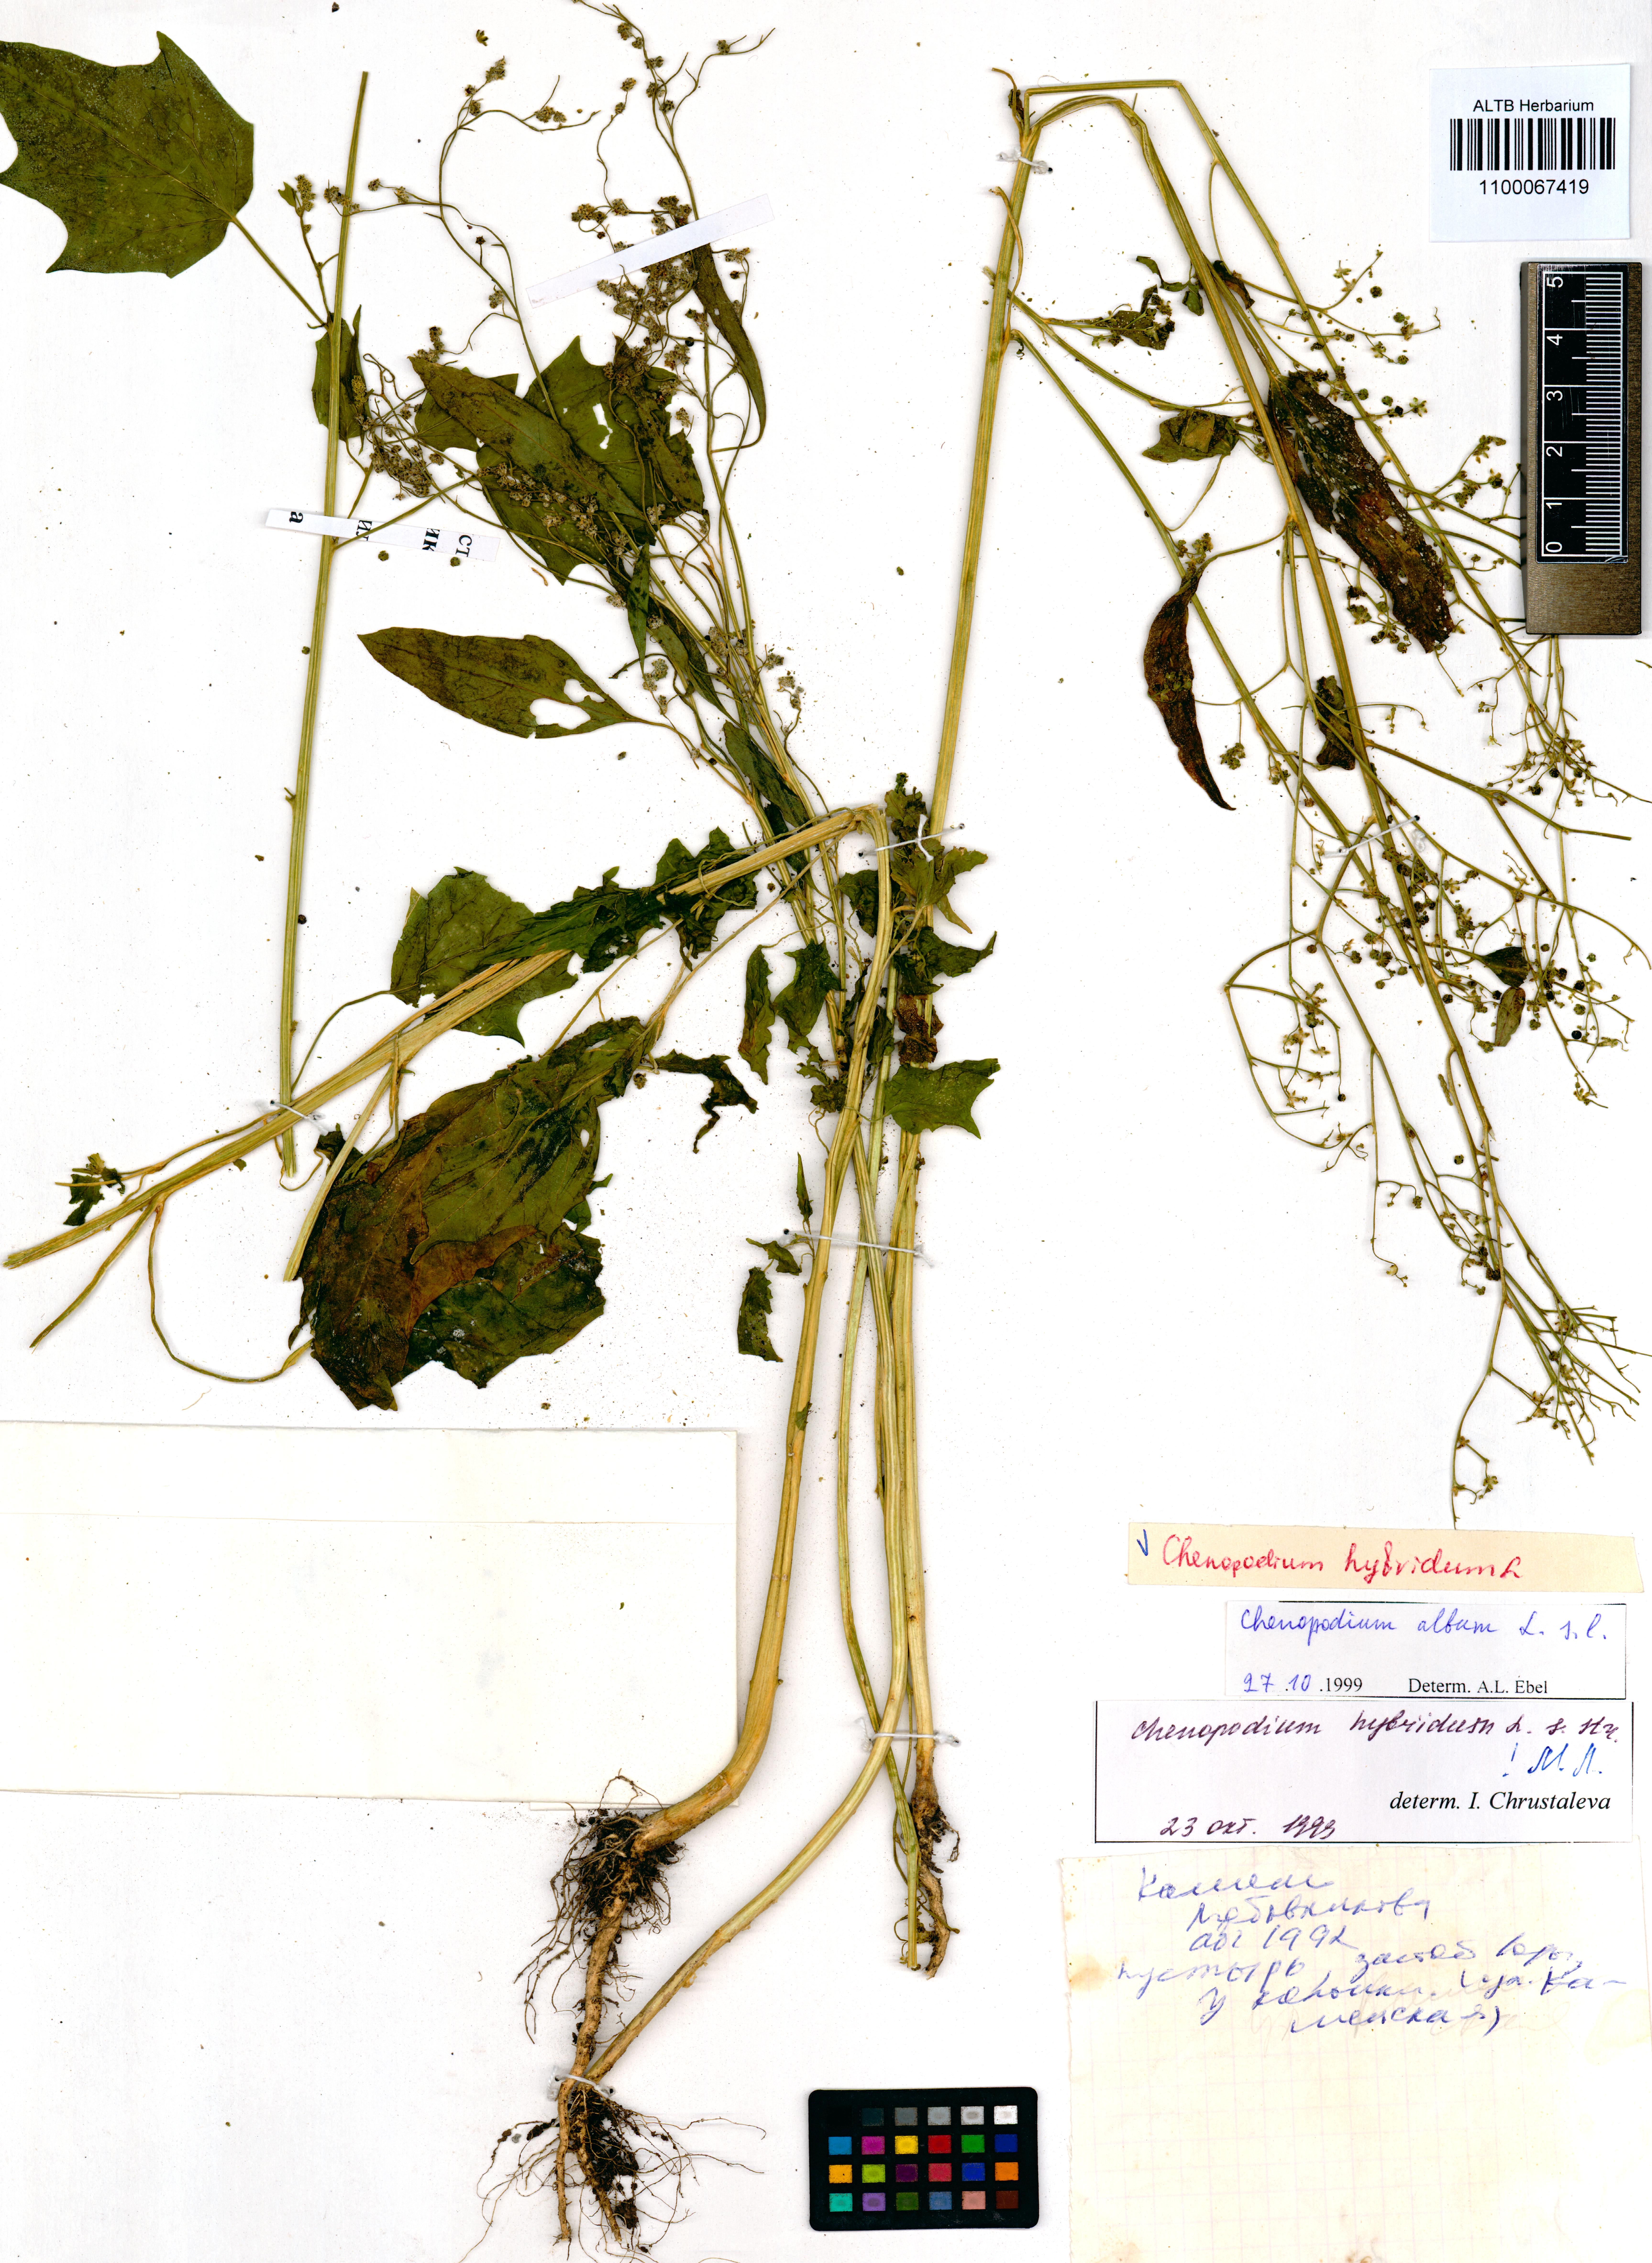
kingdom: Plantae
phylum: Tracheophyta
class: Magnoliopsida
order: Caryophyllales
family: Amaranthaceae
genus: Chenopodiastrum
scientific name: Chenopodiastrum hybridum
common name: Mapleleaf goosefoot
